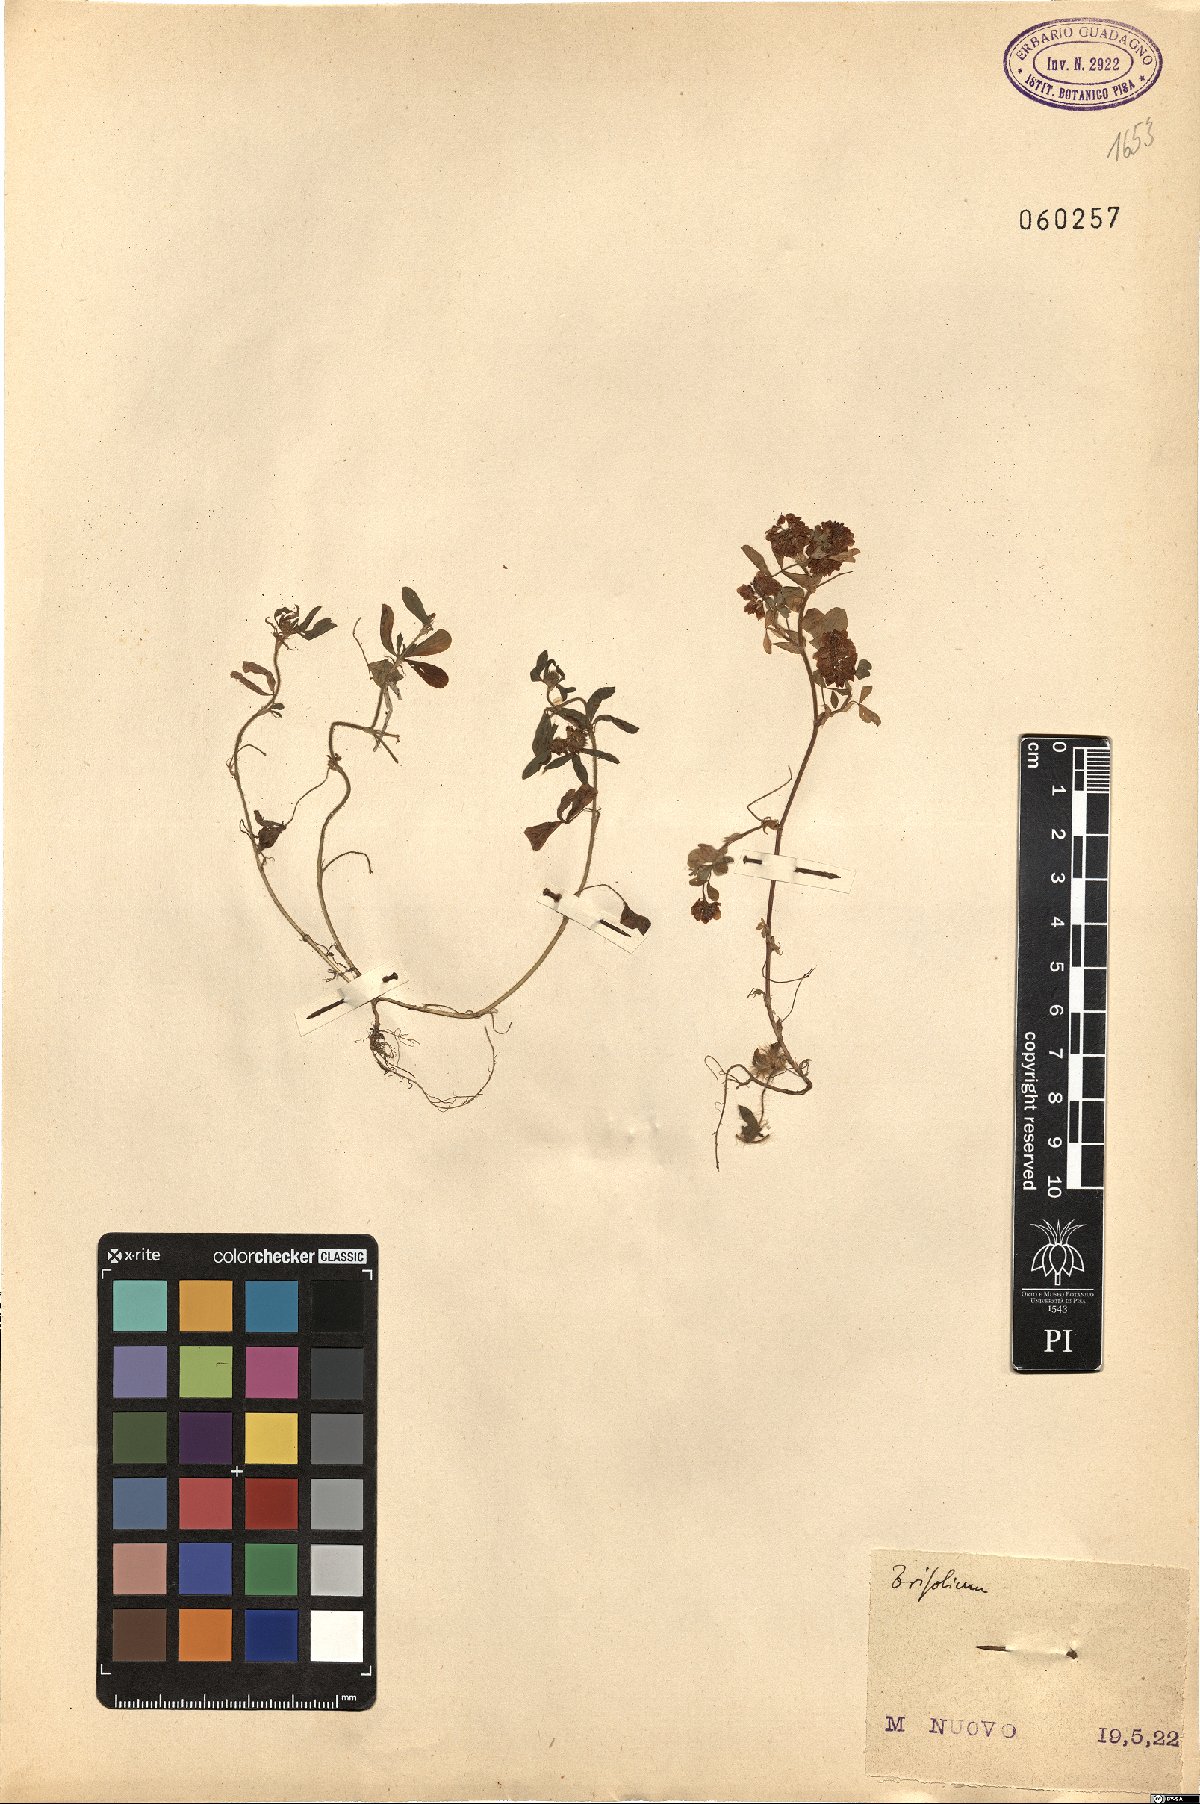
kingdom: Plantae
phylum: Tracheophyta
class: Magnoliopsida
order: Fabales
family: Fabaceae
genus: Trifolium
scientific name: Trifolium
